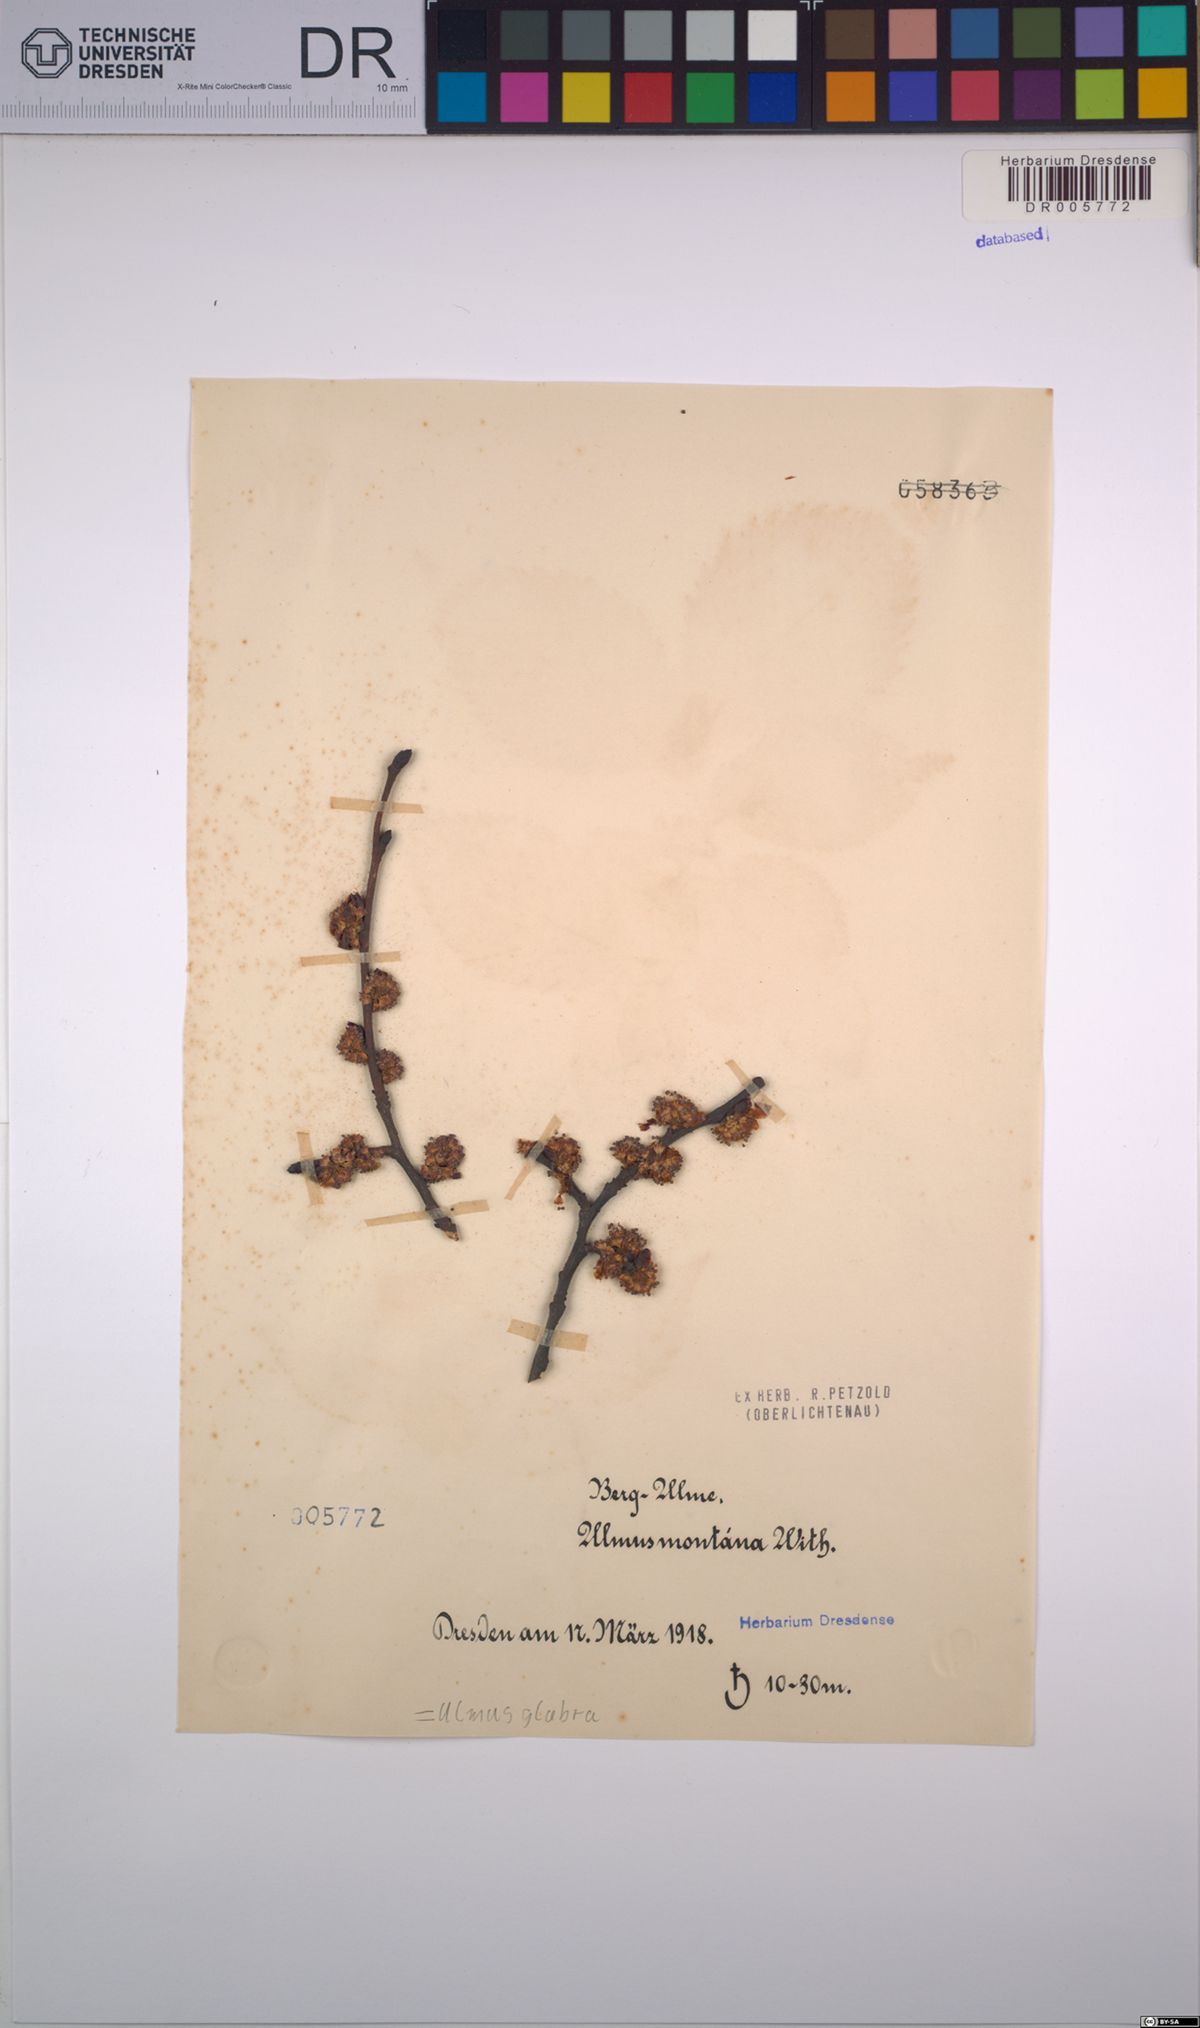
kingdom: Plantae
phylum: Tracheophyta
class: Magnoliopsida
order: Rosales
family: Ulmaceae
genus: Ulmus
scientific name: Ulmus glabra
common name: Wych elm
